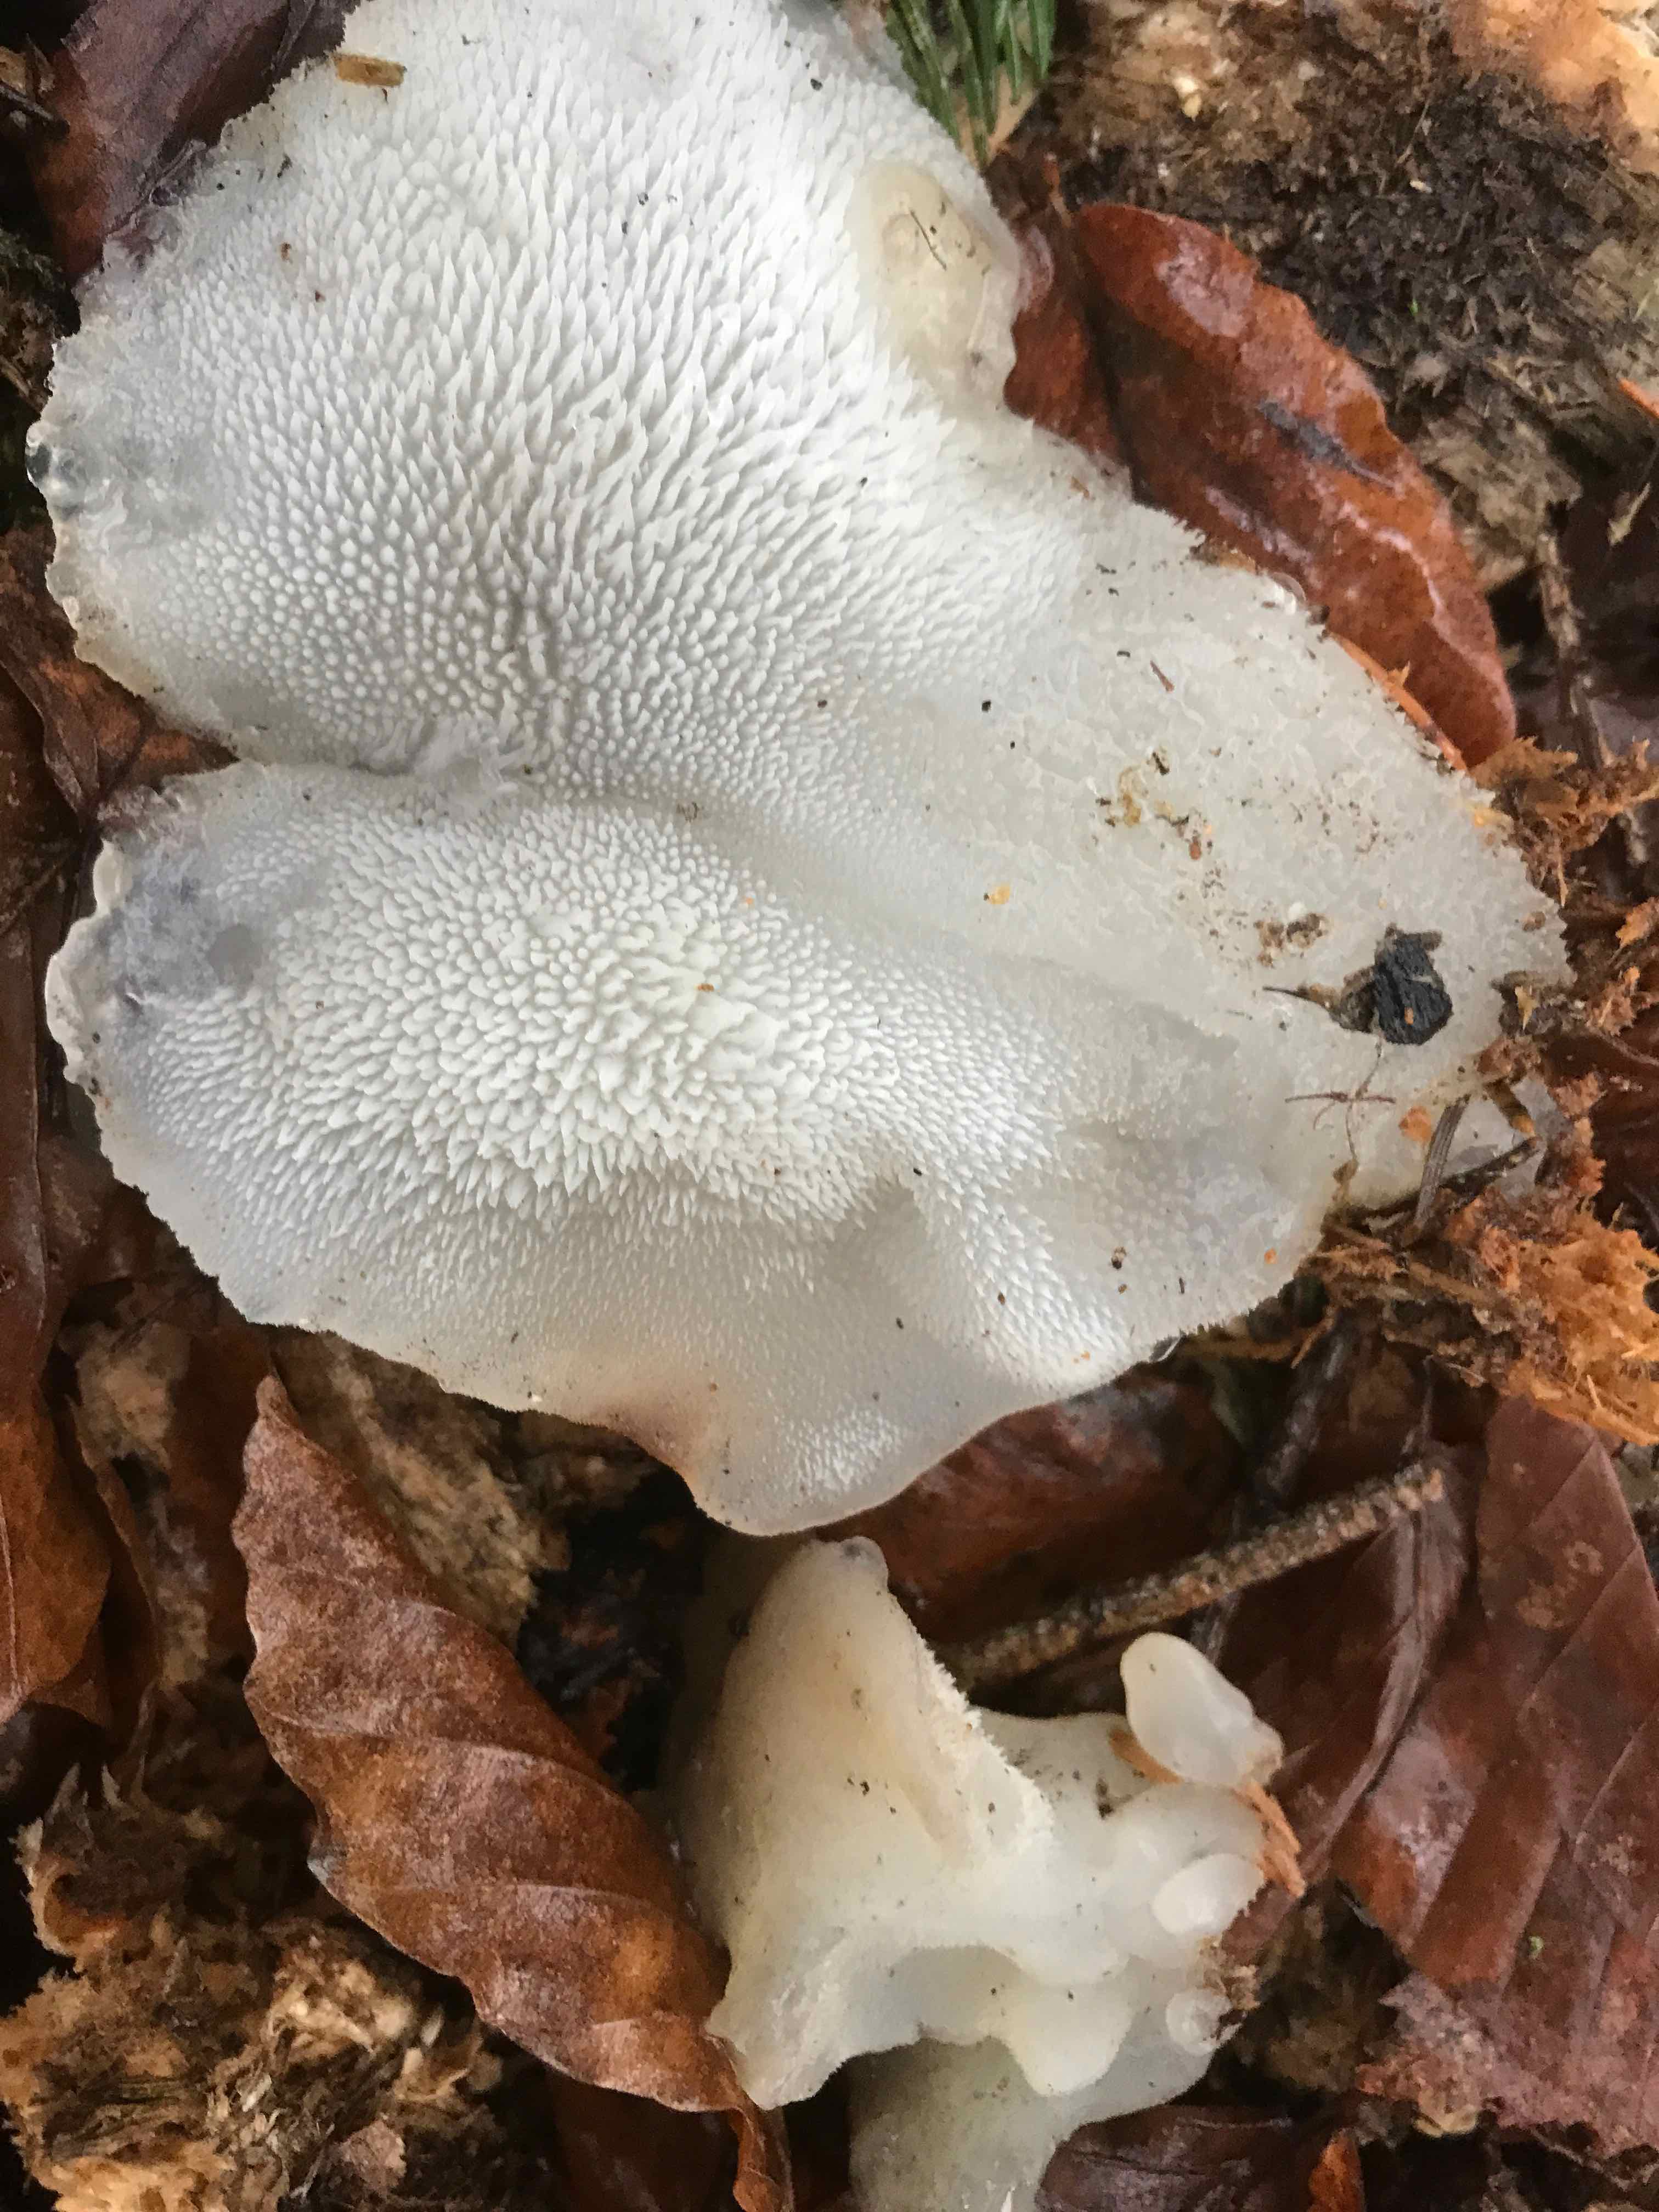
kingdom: Fungi
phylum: Basidiomycota
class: Agaricomycetes
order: Auriculariales
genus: Pseudohydnum
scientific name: Pseudohydnum gelatinosum
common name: bævretand
